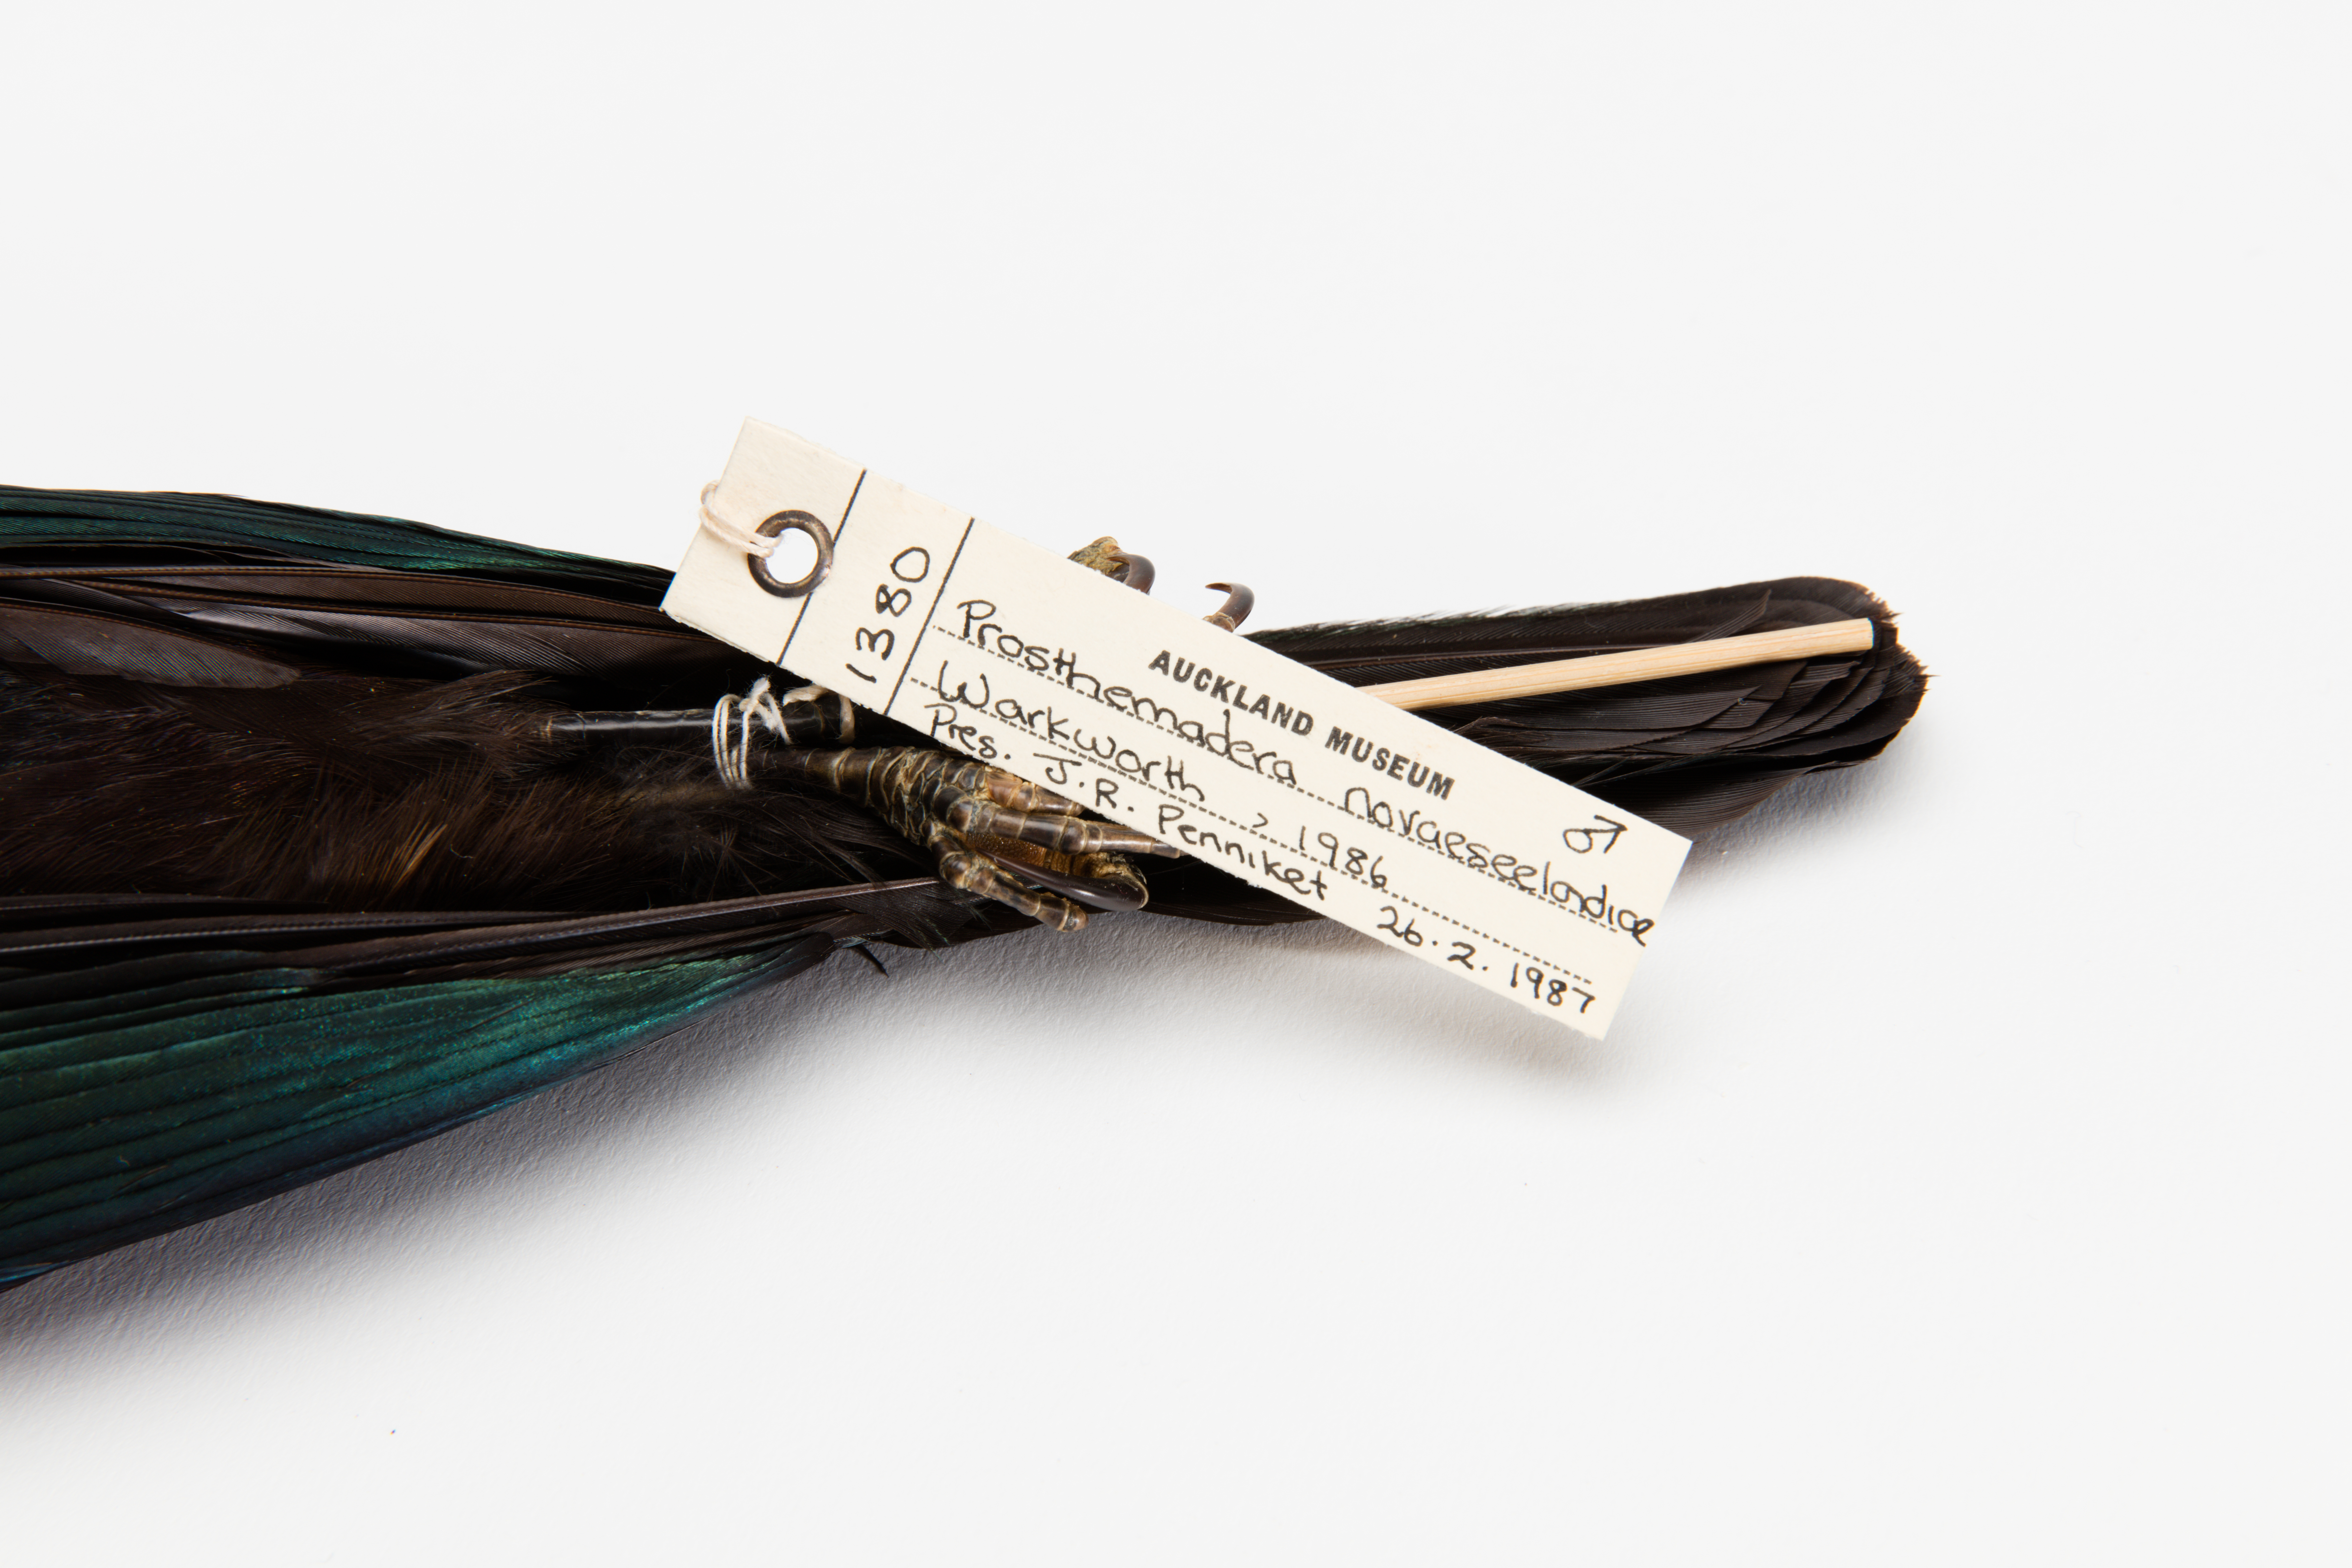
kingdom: Animalia
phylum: Chordata
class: Aves
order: Passeriformes
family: Meliphagidae
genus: Prosthemadera
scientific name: Prosthemadera novaeseelandiae
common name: Tui
